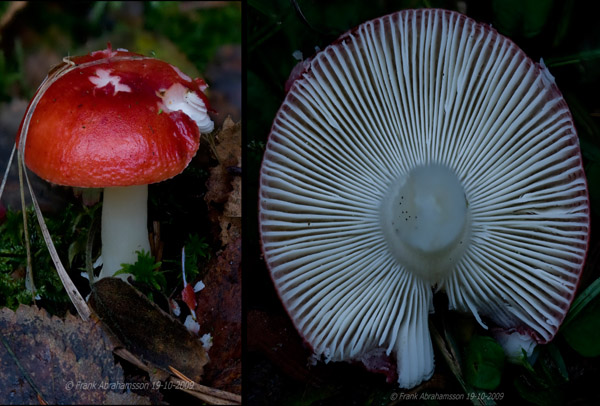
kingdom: Fungi
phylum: Basidiomycota
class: Agaricomycetes
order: Russulales
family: Russulaceae
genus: Russula
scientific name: Russula emetica
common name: stor gift-skørhat
